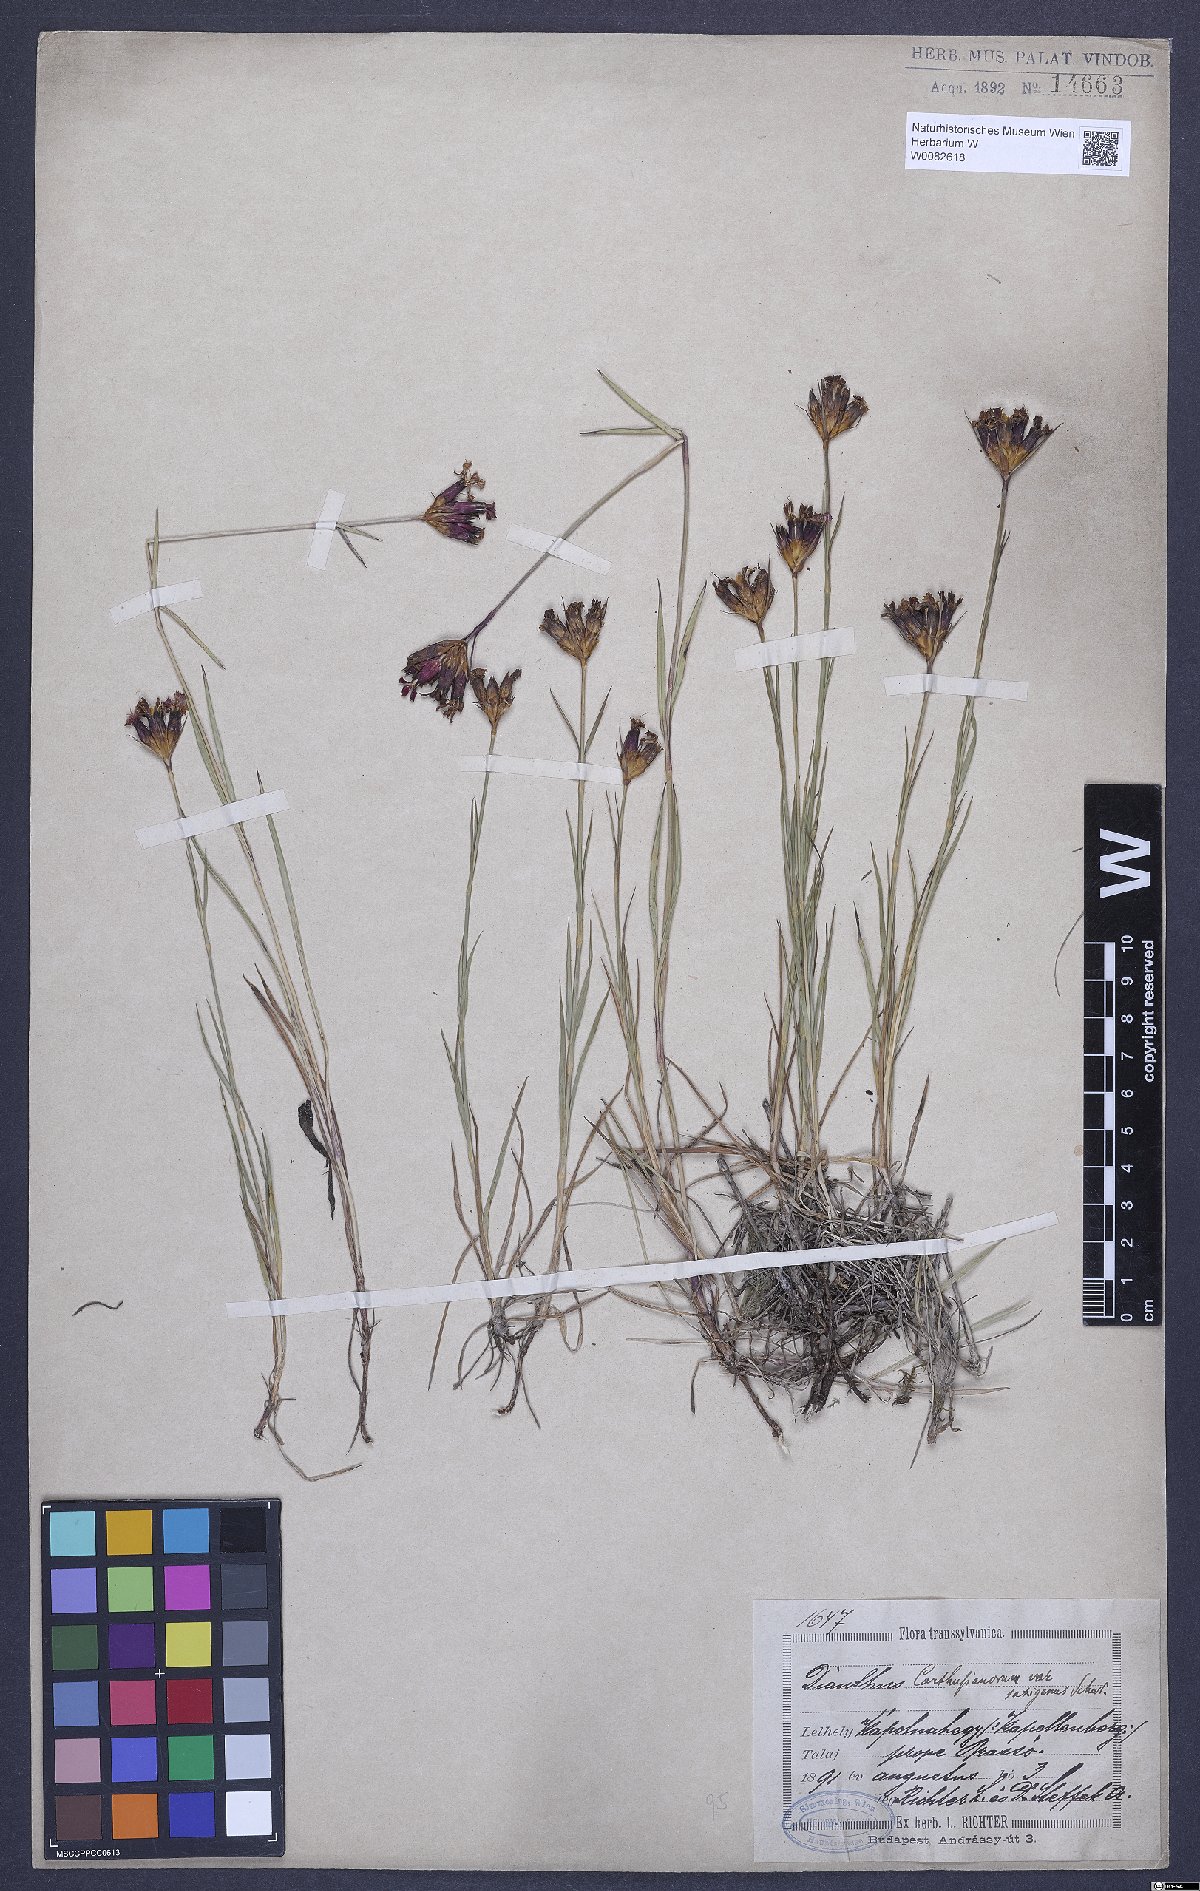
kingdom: Plantae
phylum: Tracheophyta
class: Magnoliopsida
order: Caryophyllales
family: Caryophyllaceae
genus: Dianthus
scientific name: Dianthus carthusianorum
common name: Carthusian pink
